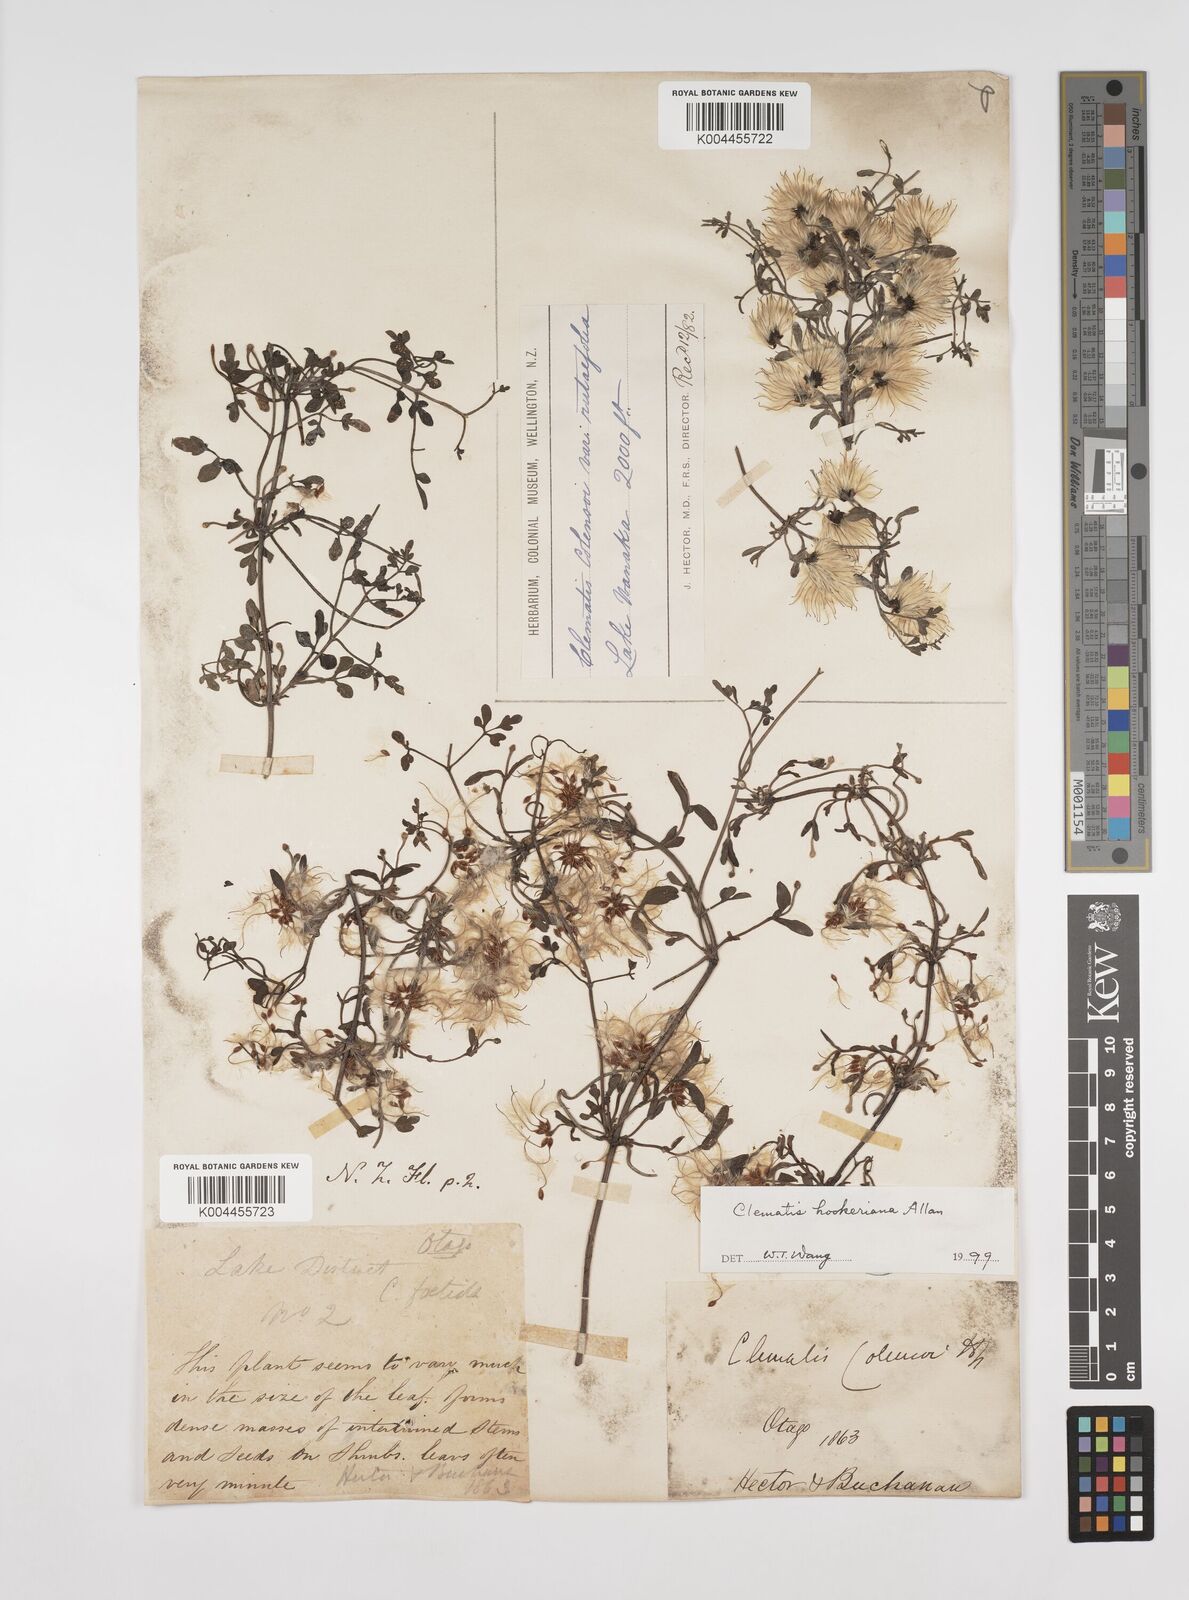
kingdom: Plantae
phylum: Tracheophyta
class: Magnoliopsida
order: Ranunculales
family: Ranunculaceae
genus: Clematis
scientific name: Clematis forsteri
